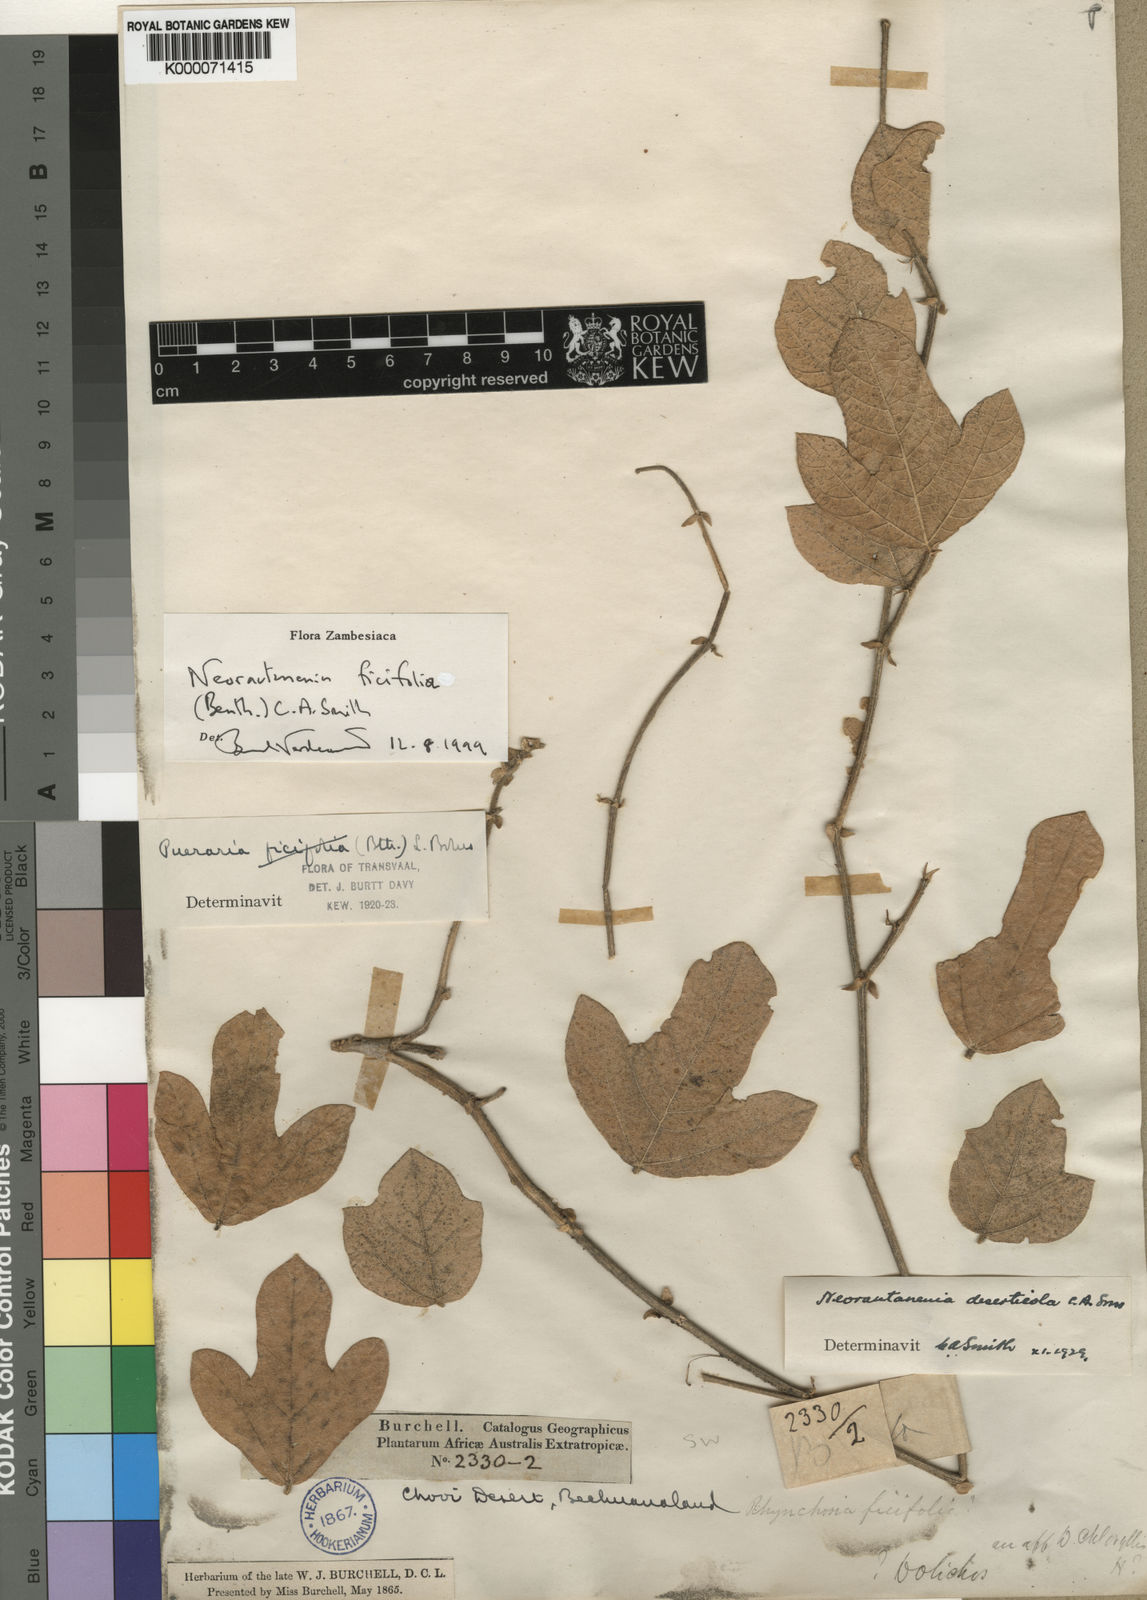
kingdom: Plantae
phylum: Tracheophyta
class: Magnoliopsida
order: Fabales
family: Fabaceae
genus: Neorautanenia
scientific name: Neorautanenia
